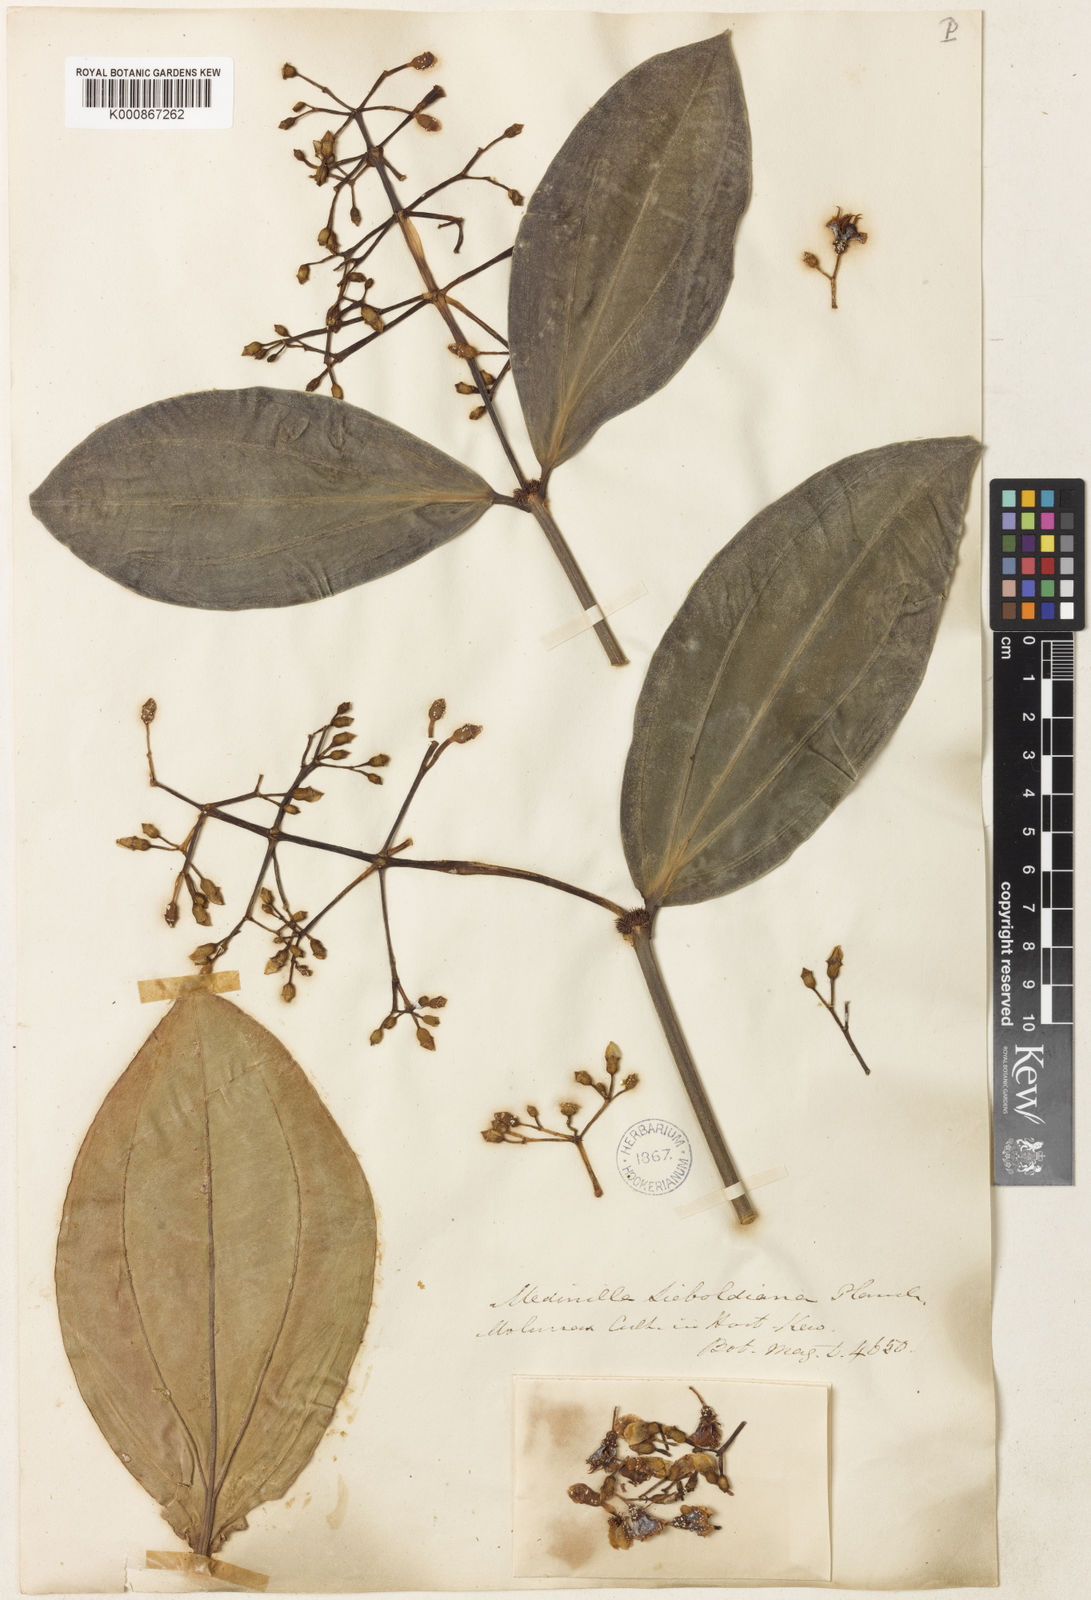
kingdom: Plantae
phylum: Tracheophyta
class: Magnoliopsida
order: Myrtales
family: Melastomataceae
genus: Medinilla
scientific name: Medinilla intermedia
